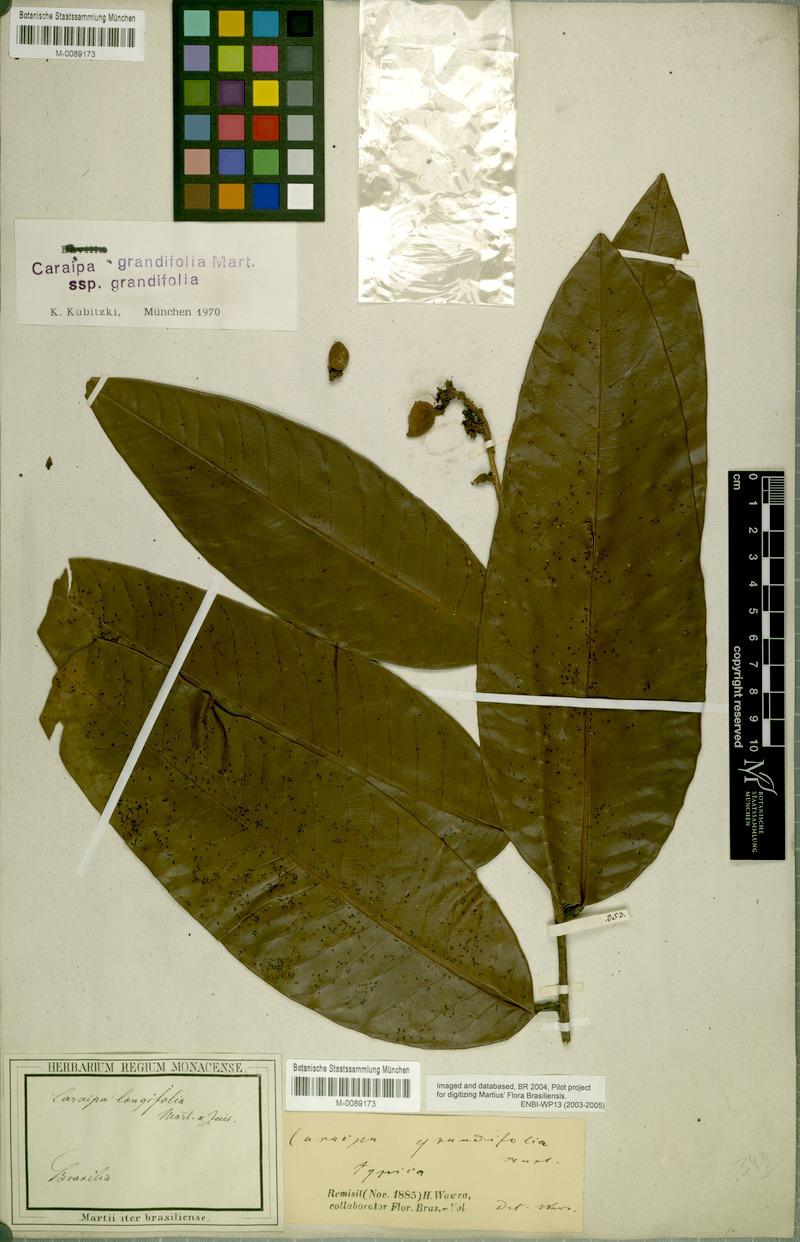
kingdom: Plantae
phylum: Tracheophyta
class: Magnoliopsida
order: Malpighiales
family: Calophyllaceae
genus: Caraipa
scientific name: Caraipa grandifolia
